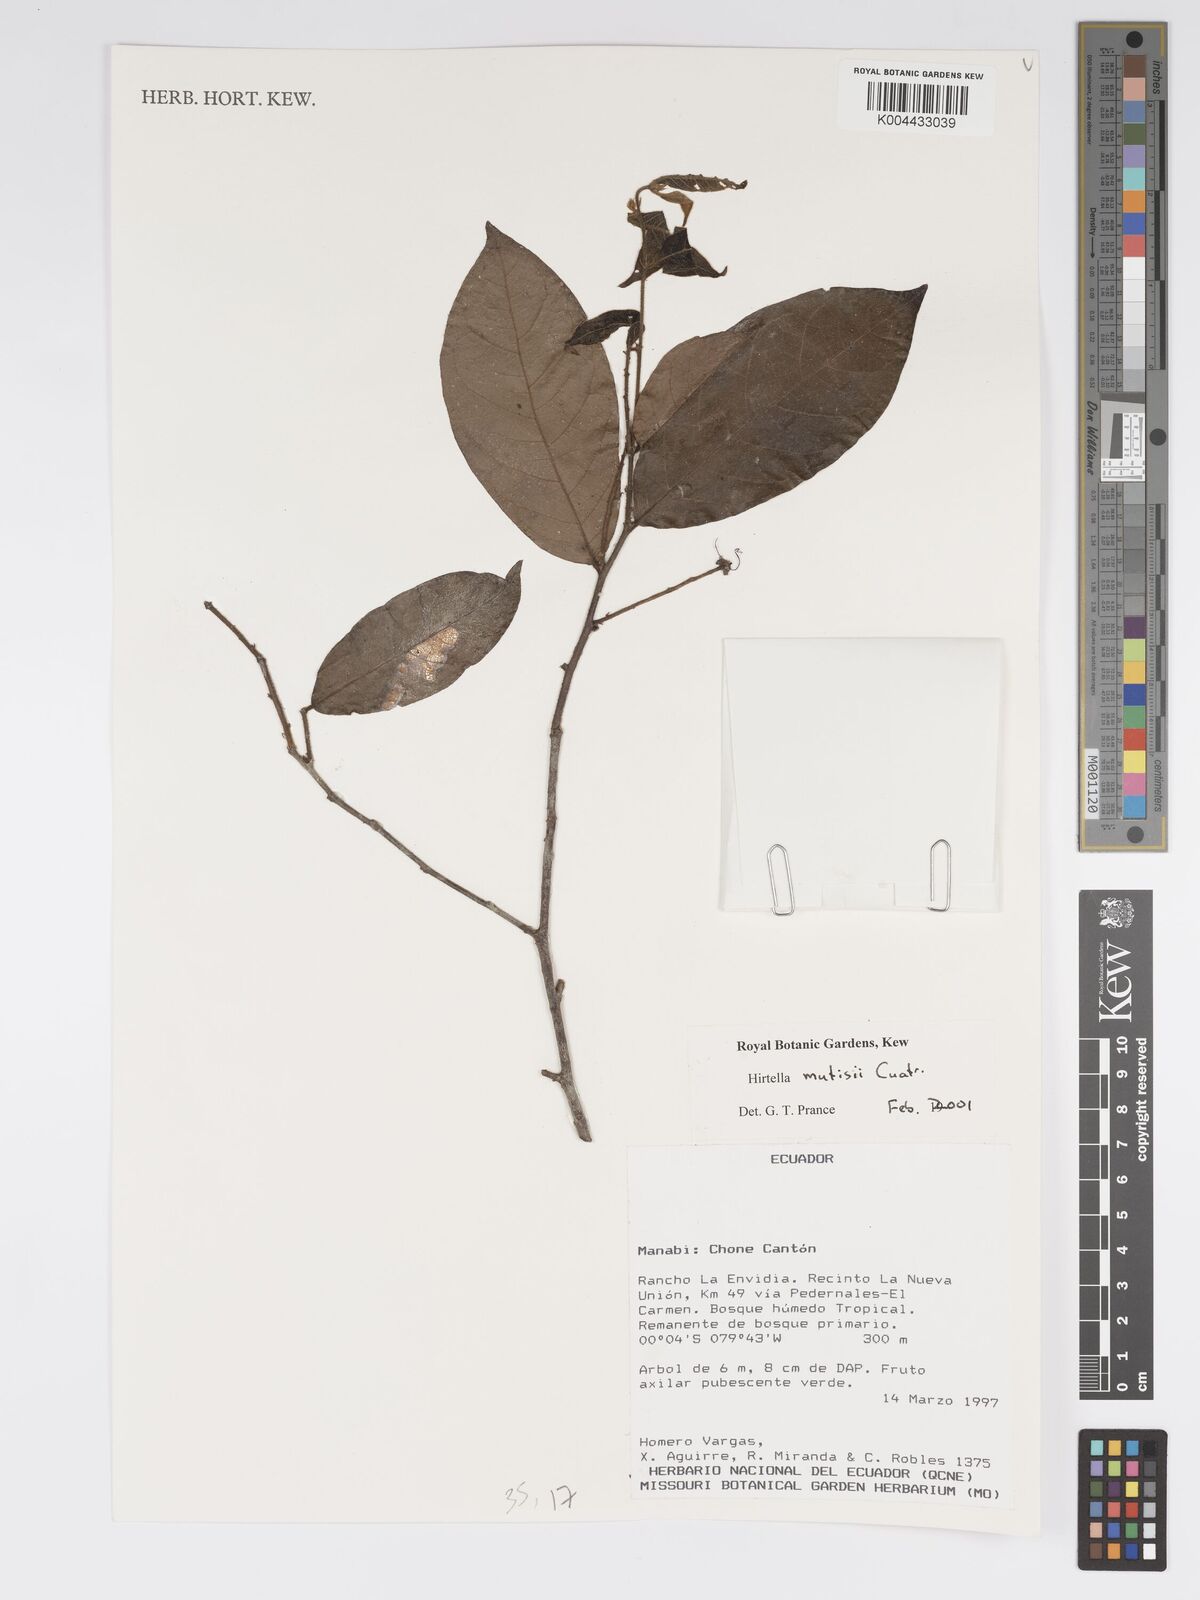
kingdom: Plantae
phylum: Tracheophyta
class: Magnoliopsida
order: Malpighiales
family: Chrysobalanaceae
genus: Hirtella
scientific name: Hirtella mutisii
